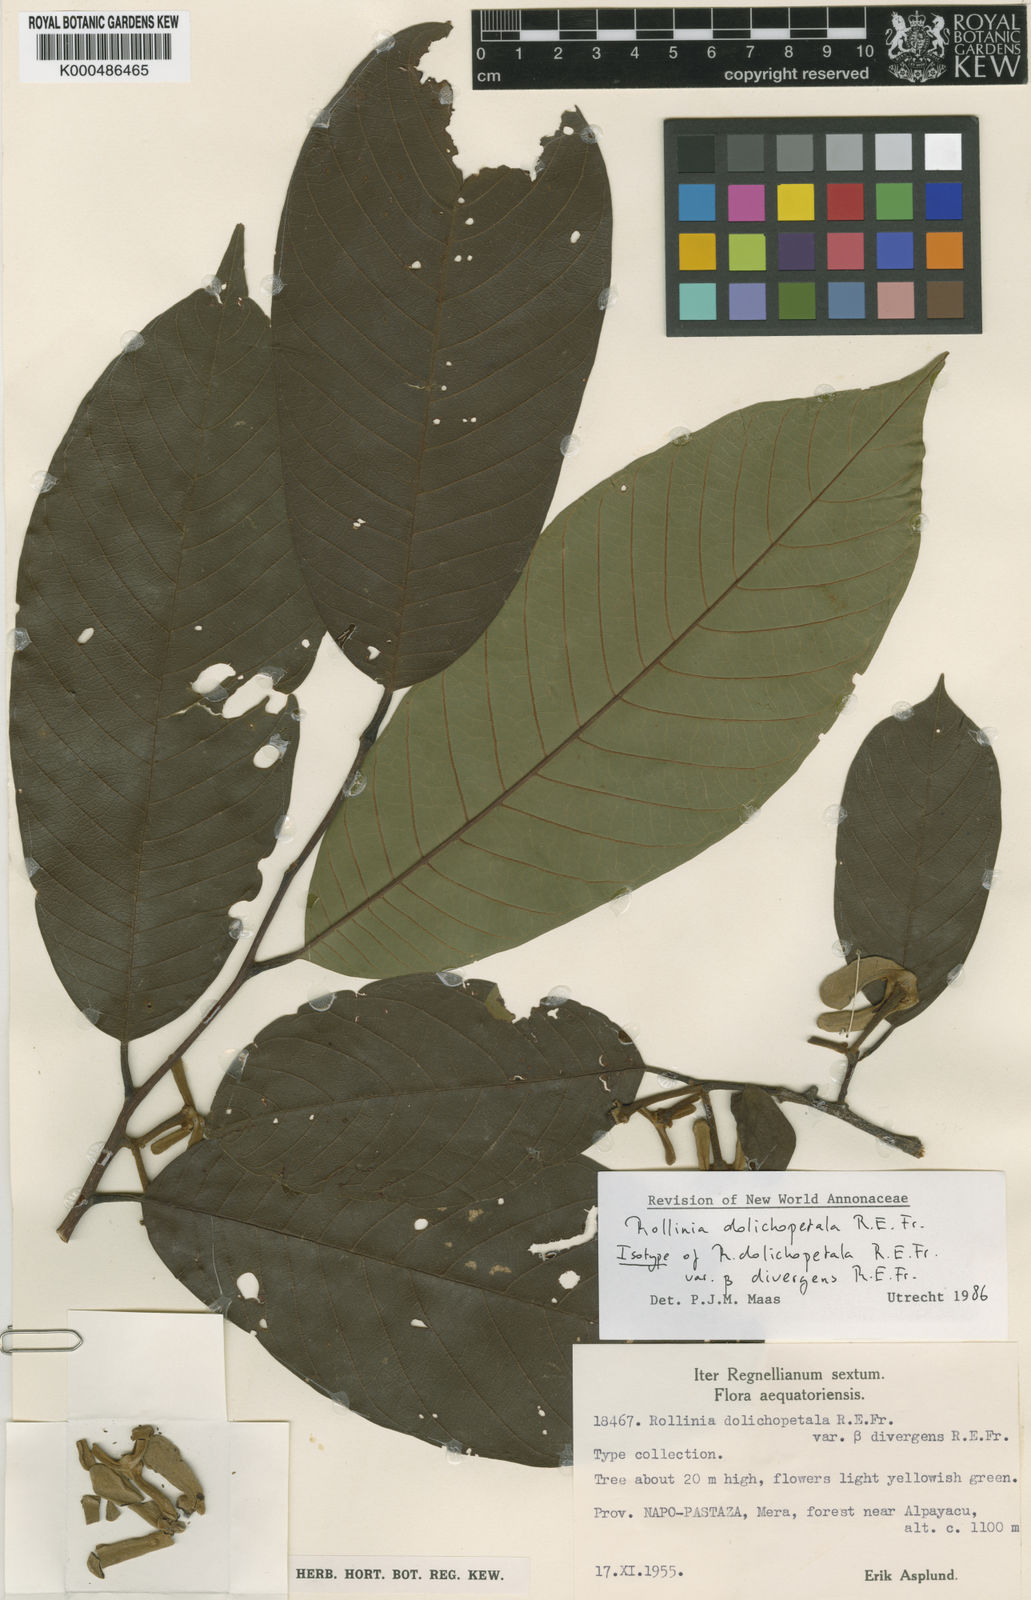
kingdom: Plantae
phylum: Tracheophyta
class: Magnoliopsida
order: Magnoliales
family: Annonaceae
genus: Annona
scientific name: Annona dolichopetala
